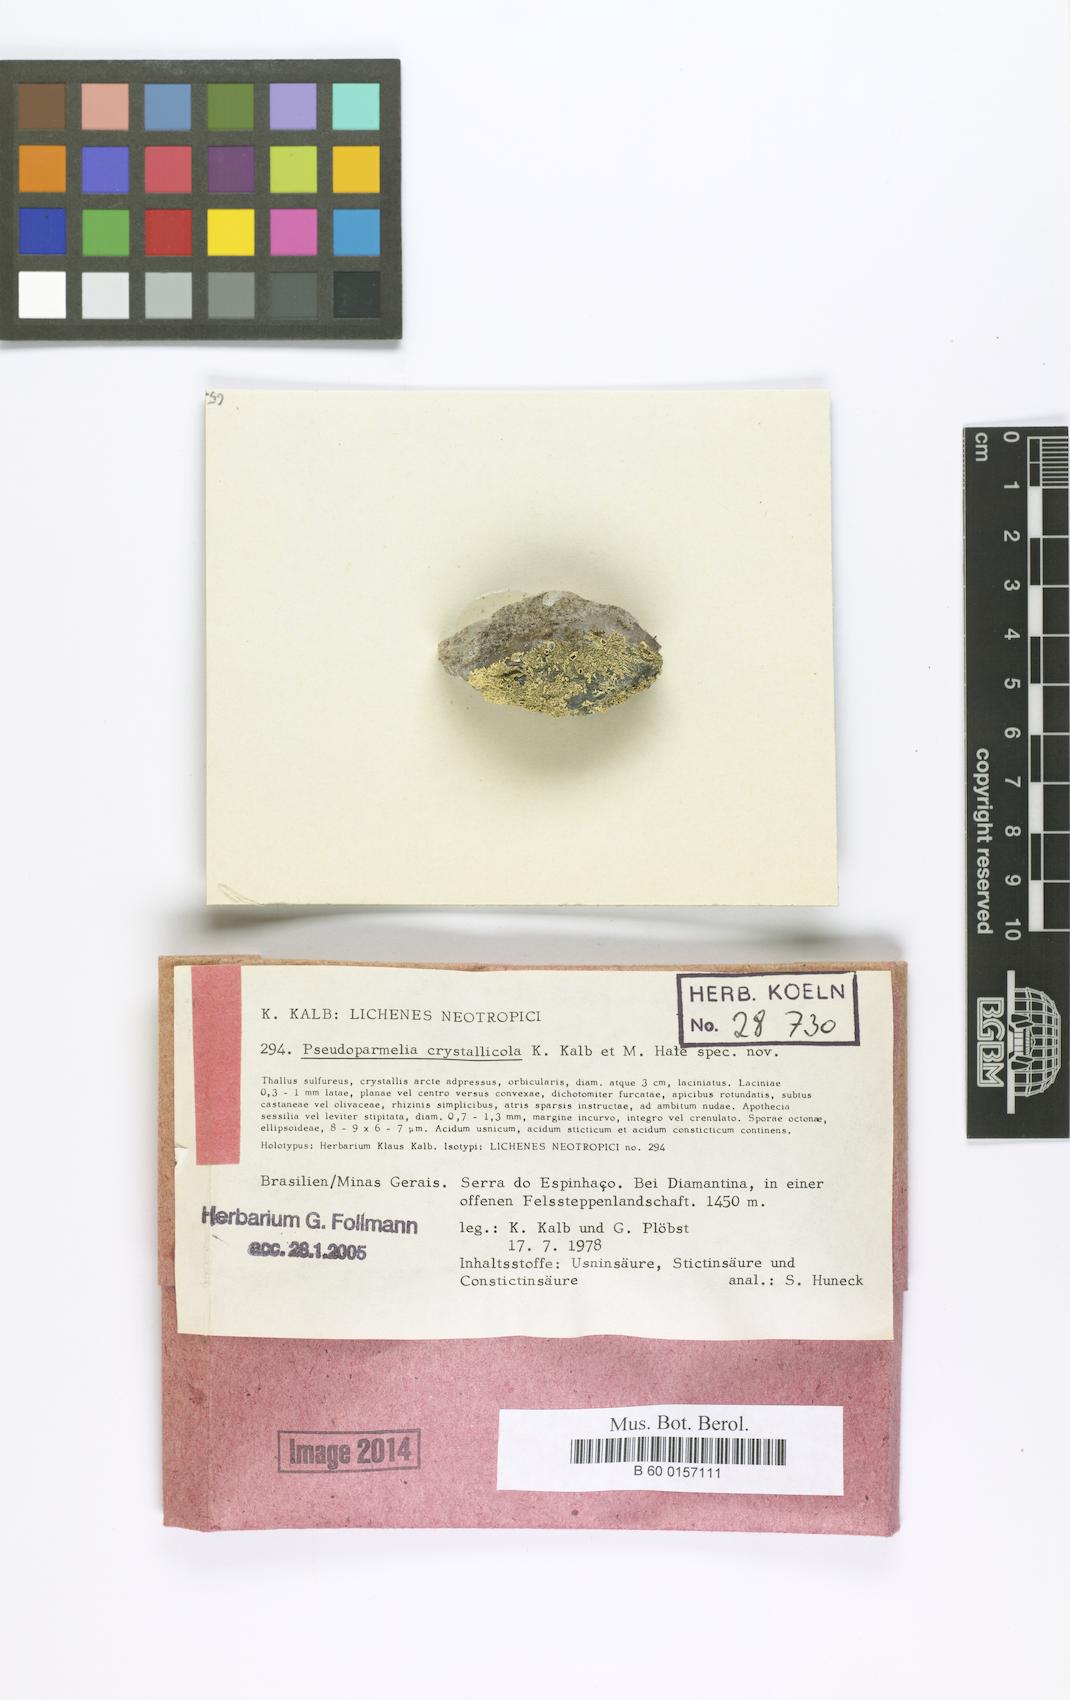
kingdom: Fungi
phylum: Ascomycota
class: Lecanoromycetes
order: Lecanorales
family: Parmeliaceae
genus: Xanthoparmelia
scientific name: Xanthoparmelia crystallicola
